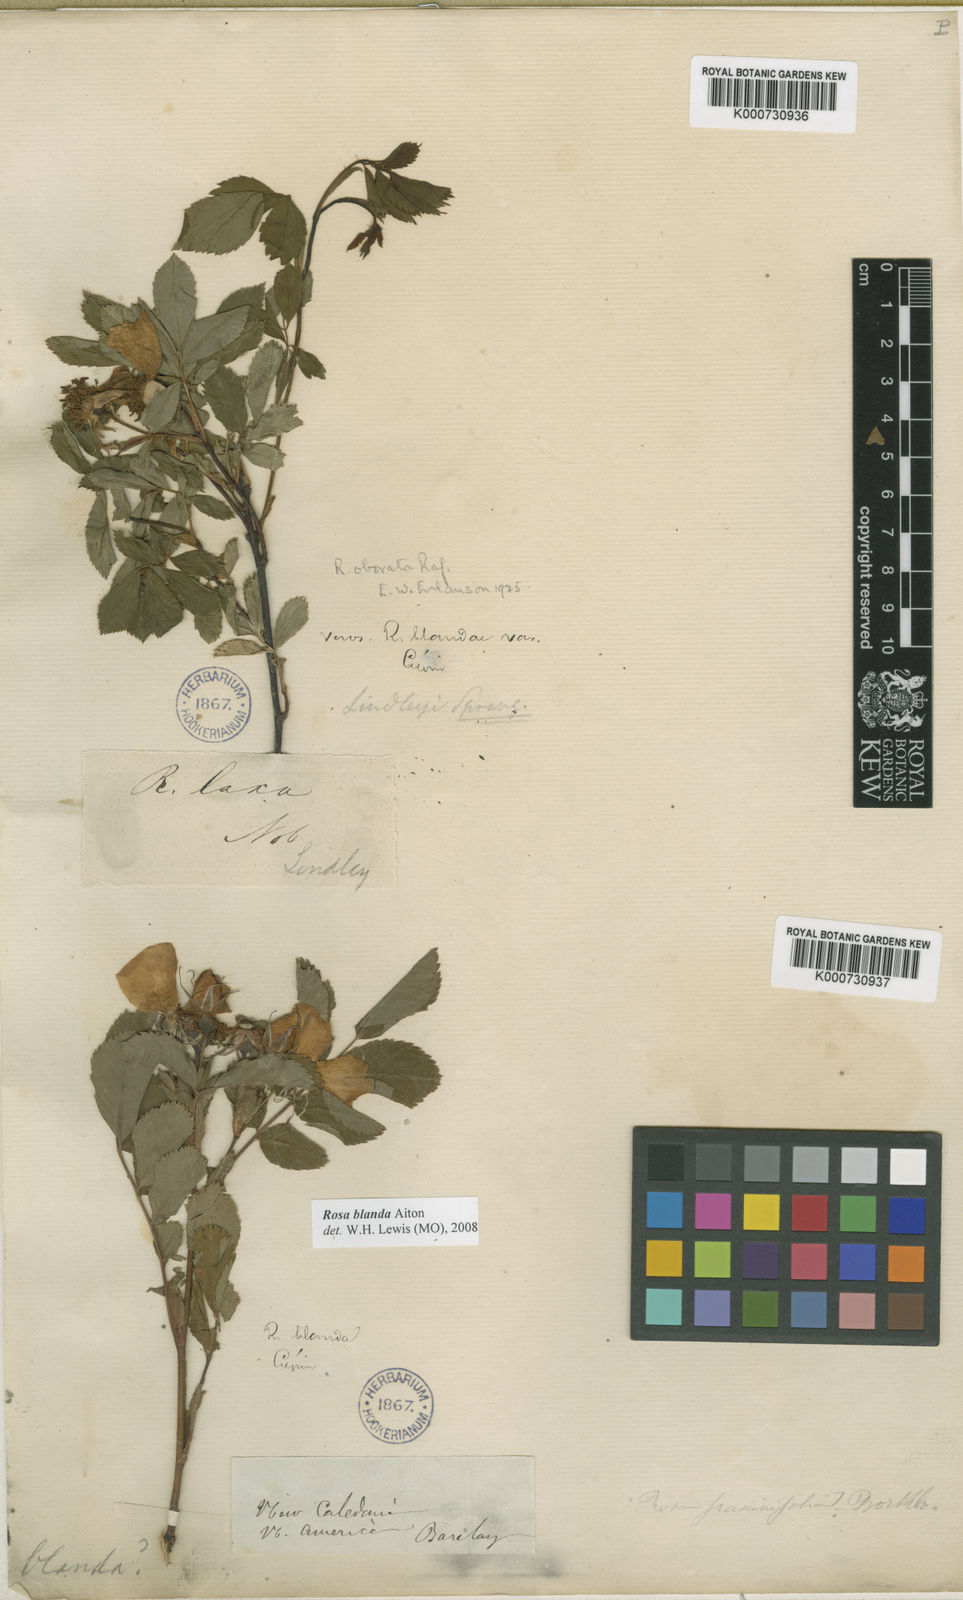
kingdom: Plantae
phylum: Tracheophyta
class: Magnoliopsida
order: Rosales
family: Rosaceae
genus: Rosa
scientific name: Rosa carolina
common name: Pasture rose
